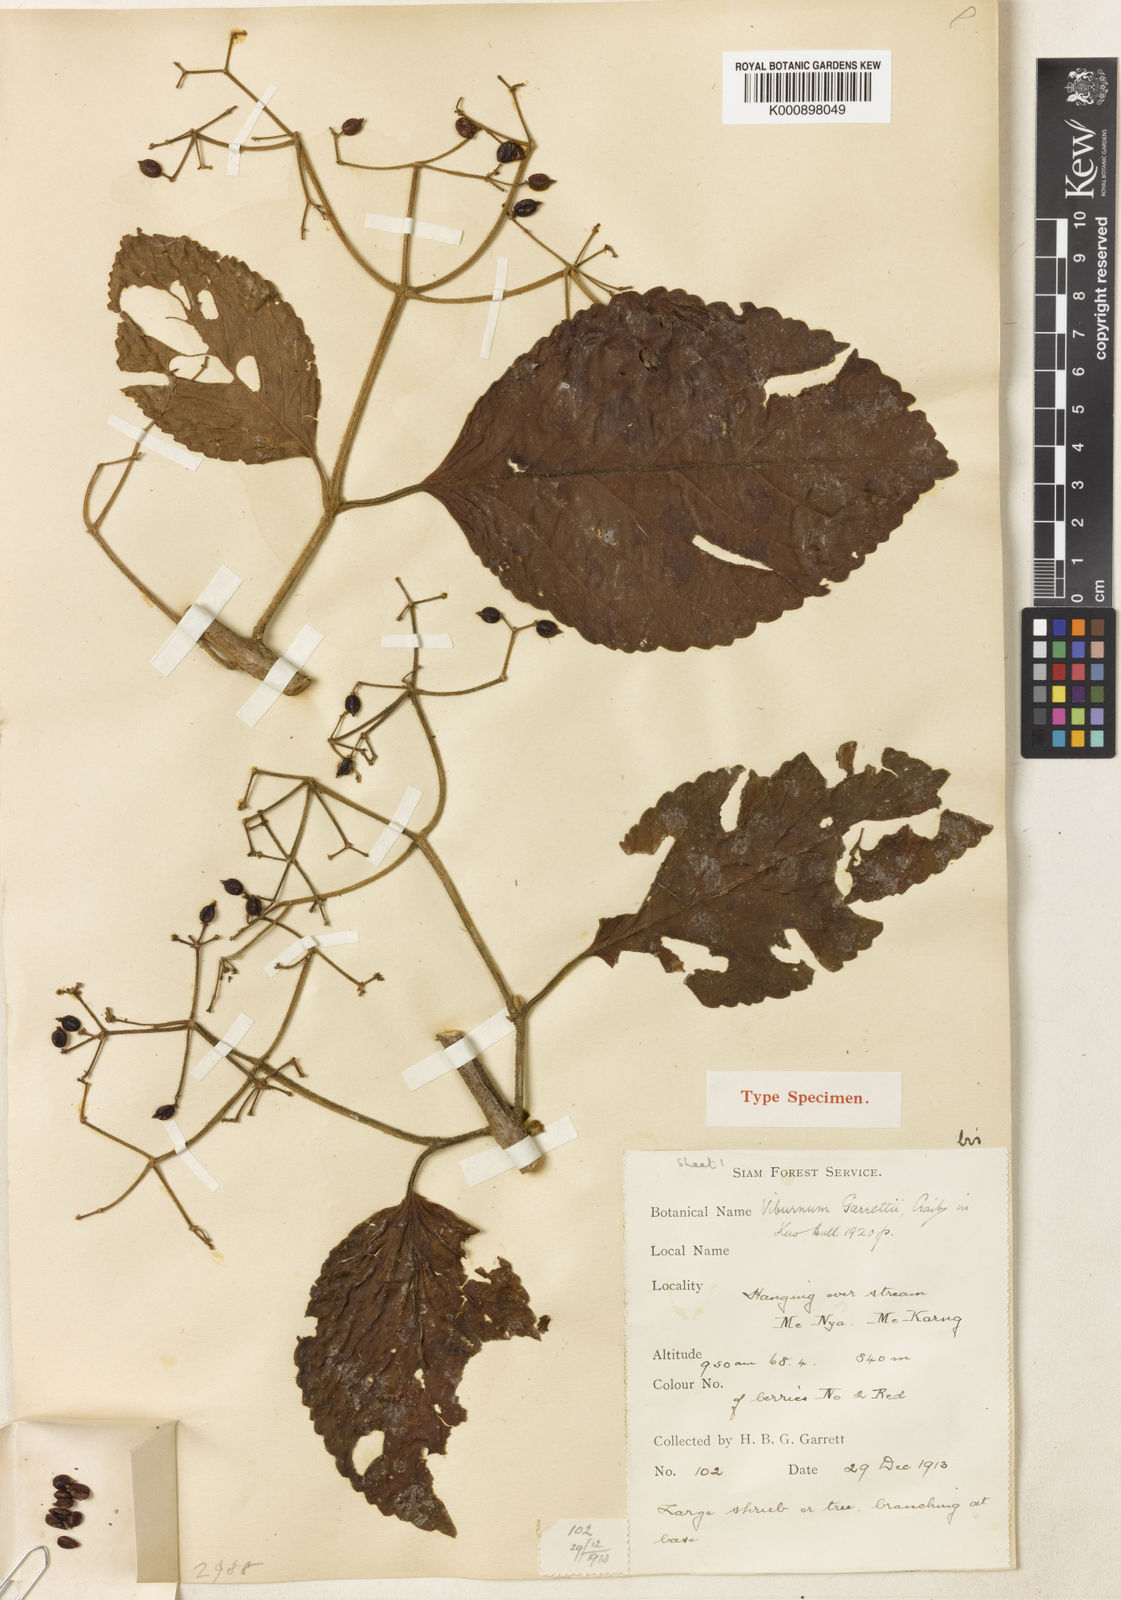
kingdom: Plantae
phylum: Tracheophyta
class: Magnoliopsida
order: Dipsacales
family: Viburnaceae
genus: Viburnum
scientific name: Viburnum garrettii
